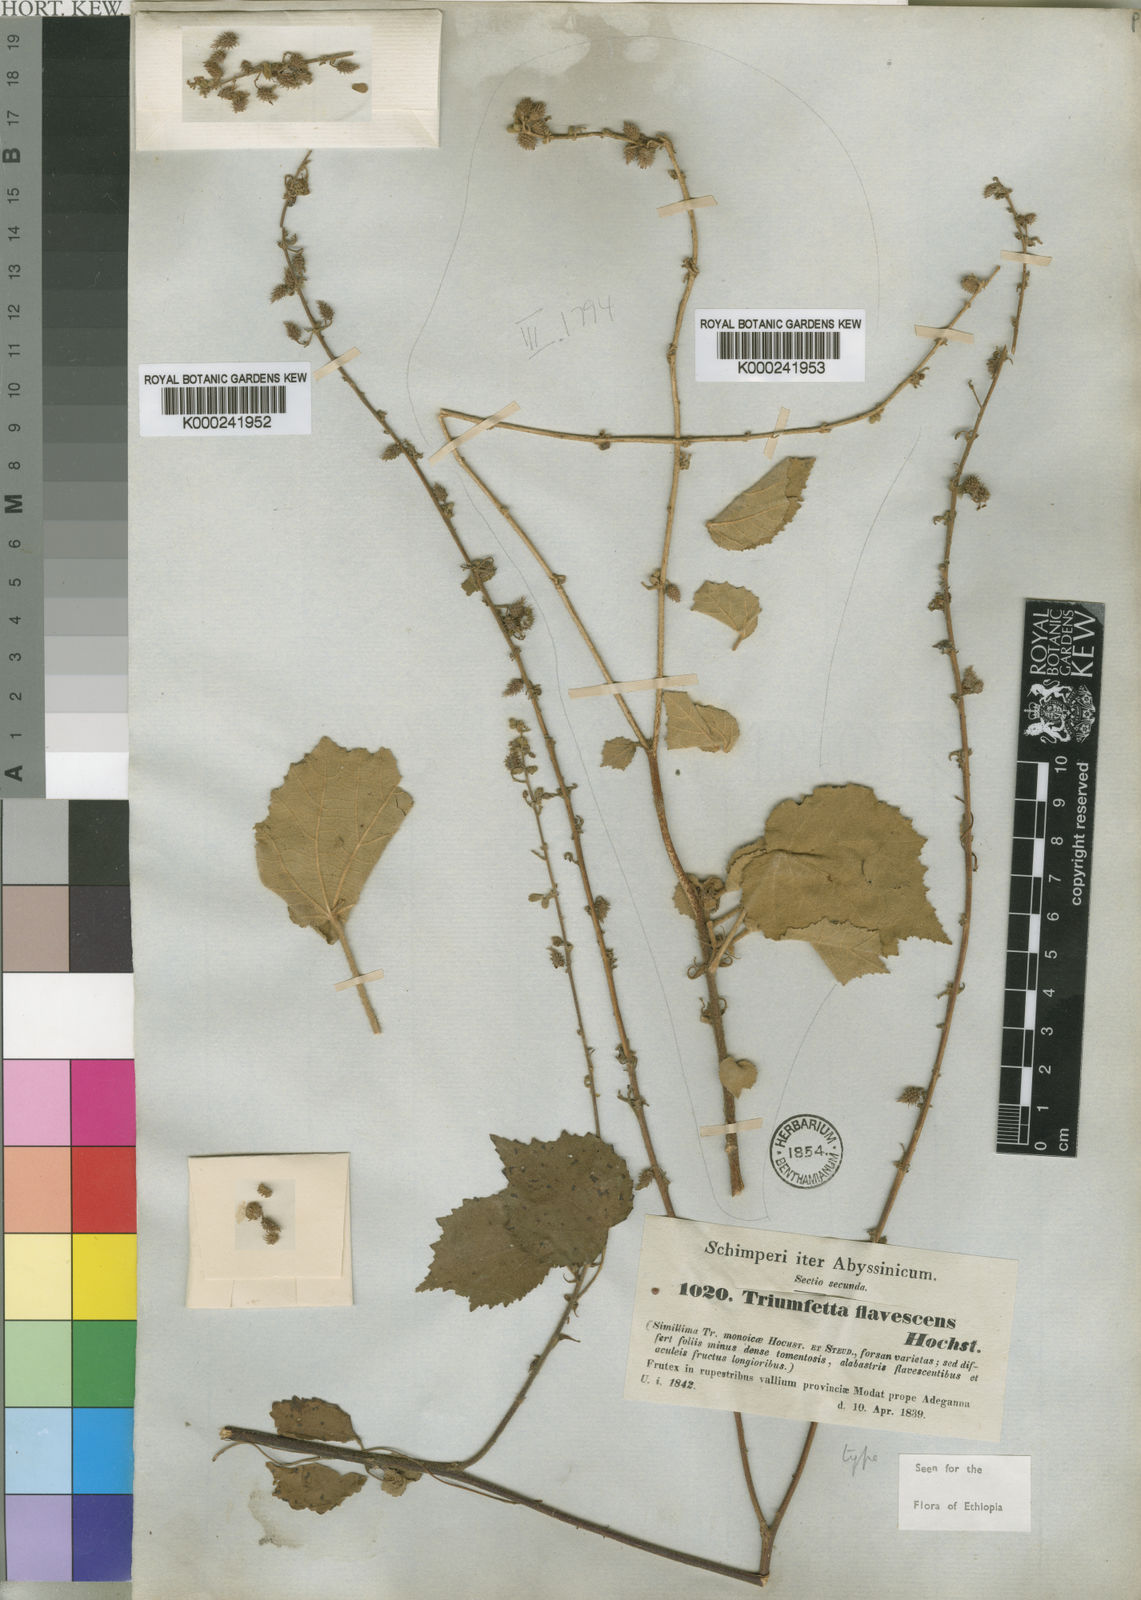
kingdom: Plantae
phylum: Tracheophyta
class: Magnoliopsida
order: Malvales
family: Malvaceae
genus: Triumfetta
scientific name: Triumfetta flavescens
